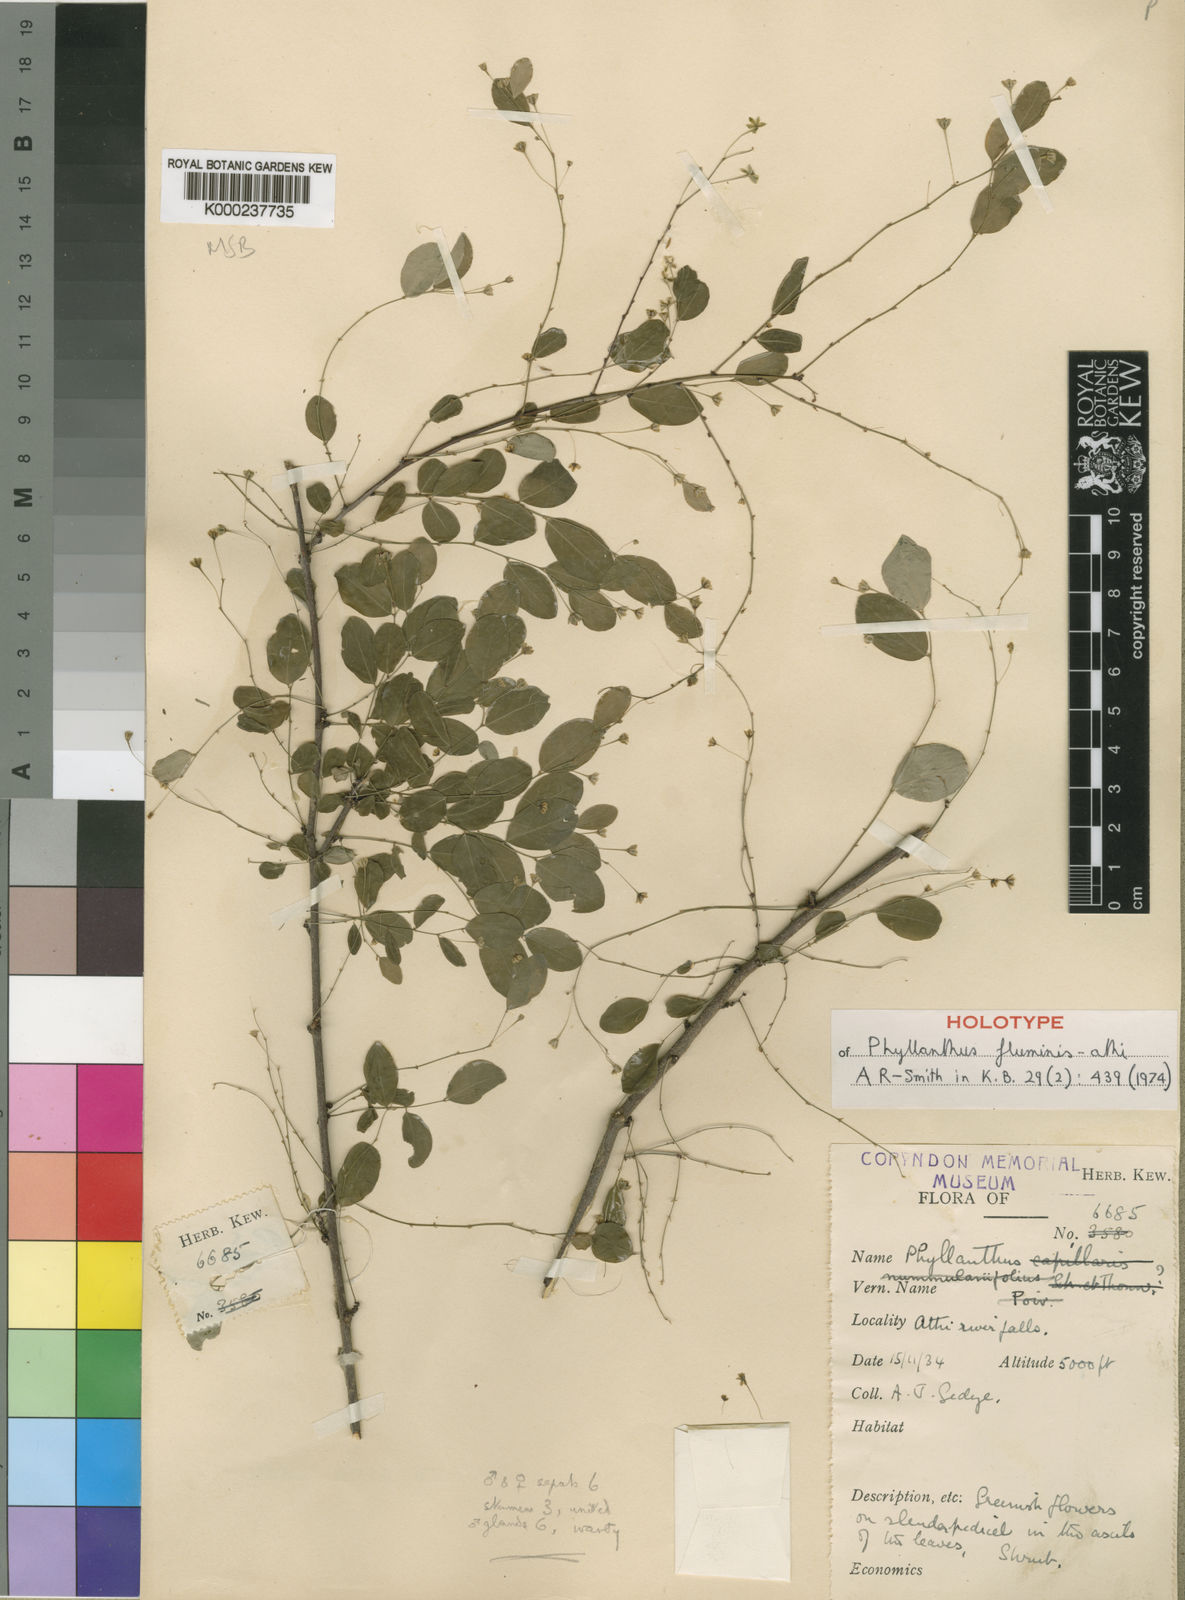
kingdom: Plantae
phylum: Tracheophyta
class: Magnoliopsida
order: Malpighiales
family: Phyllanthaceae
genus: Phyllanthus
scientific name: Phyllanthus
